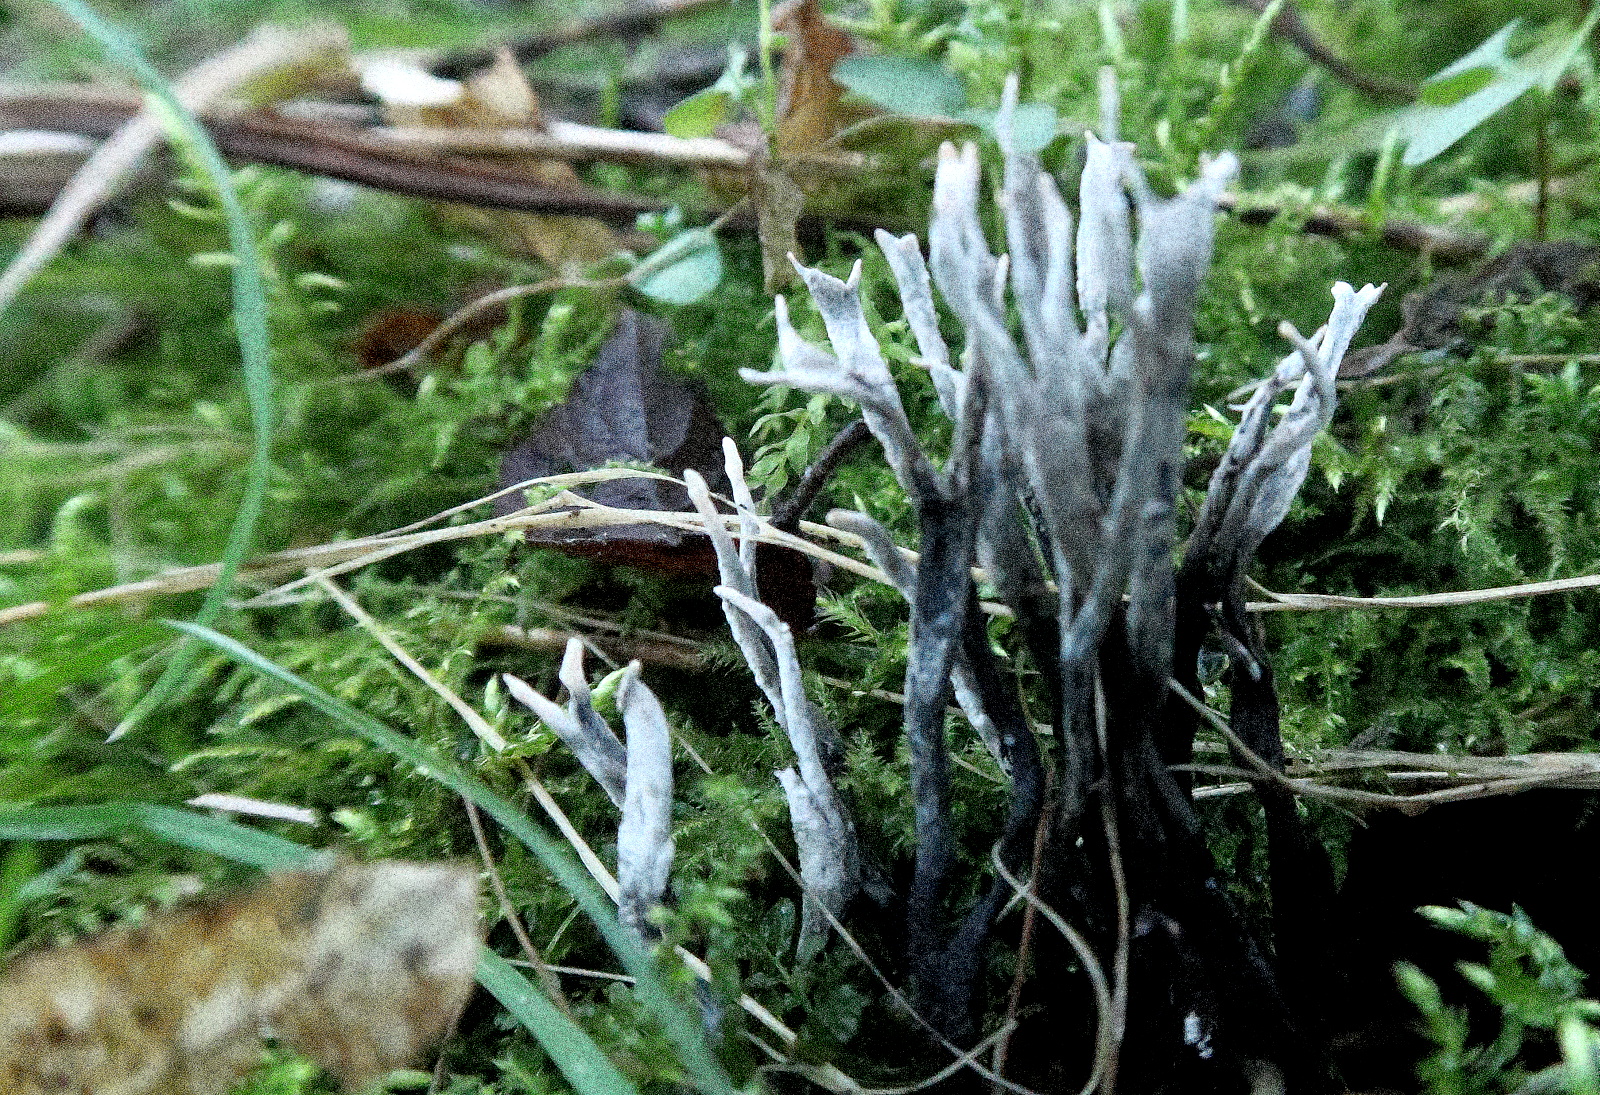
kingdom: Fungi
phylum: Ascomycota
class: Sordariomycetes
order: Xylariales
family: Xylariaceae
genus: Xylaria
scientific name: Xylaria hypoxylon
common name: grenet stødsvamp
